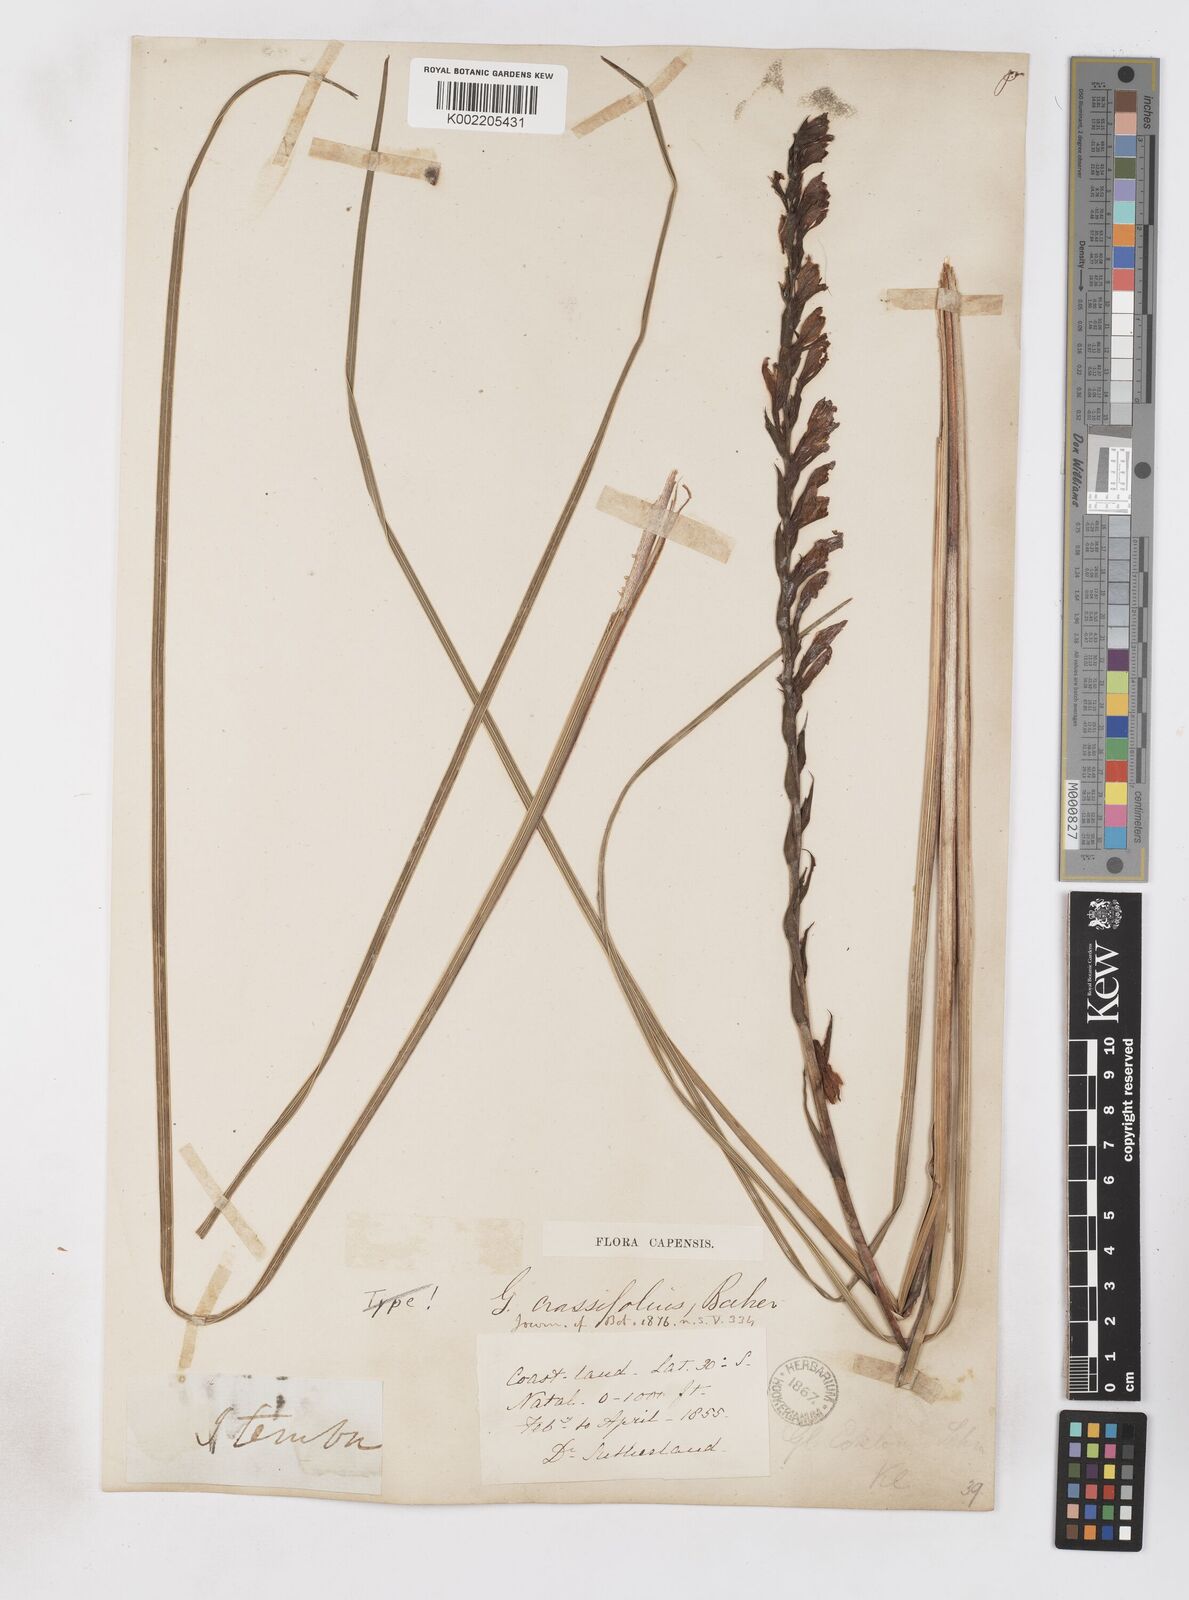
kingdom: Plantae
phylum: Tracheophyta
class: Liliopsida
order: Asparagales
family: Iridaceae
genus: Gladiolus
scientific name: Gladiolus densiflorus
